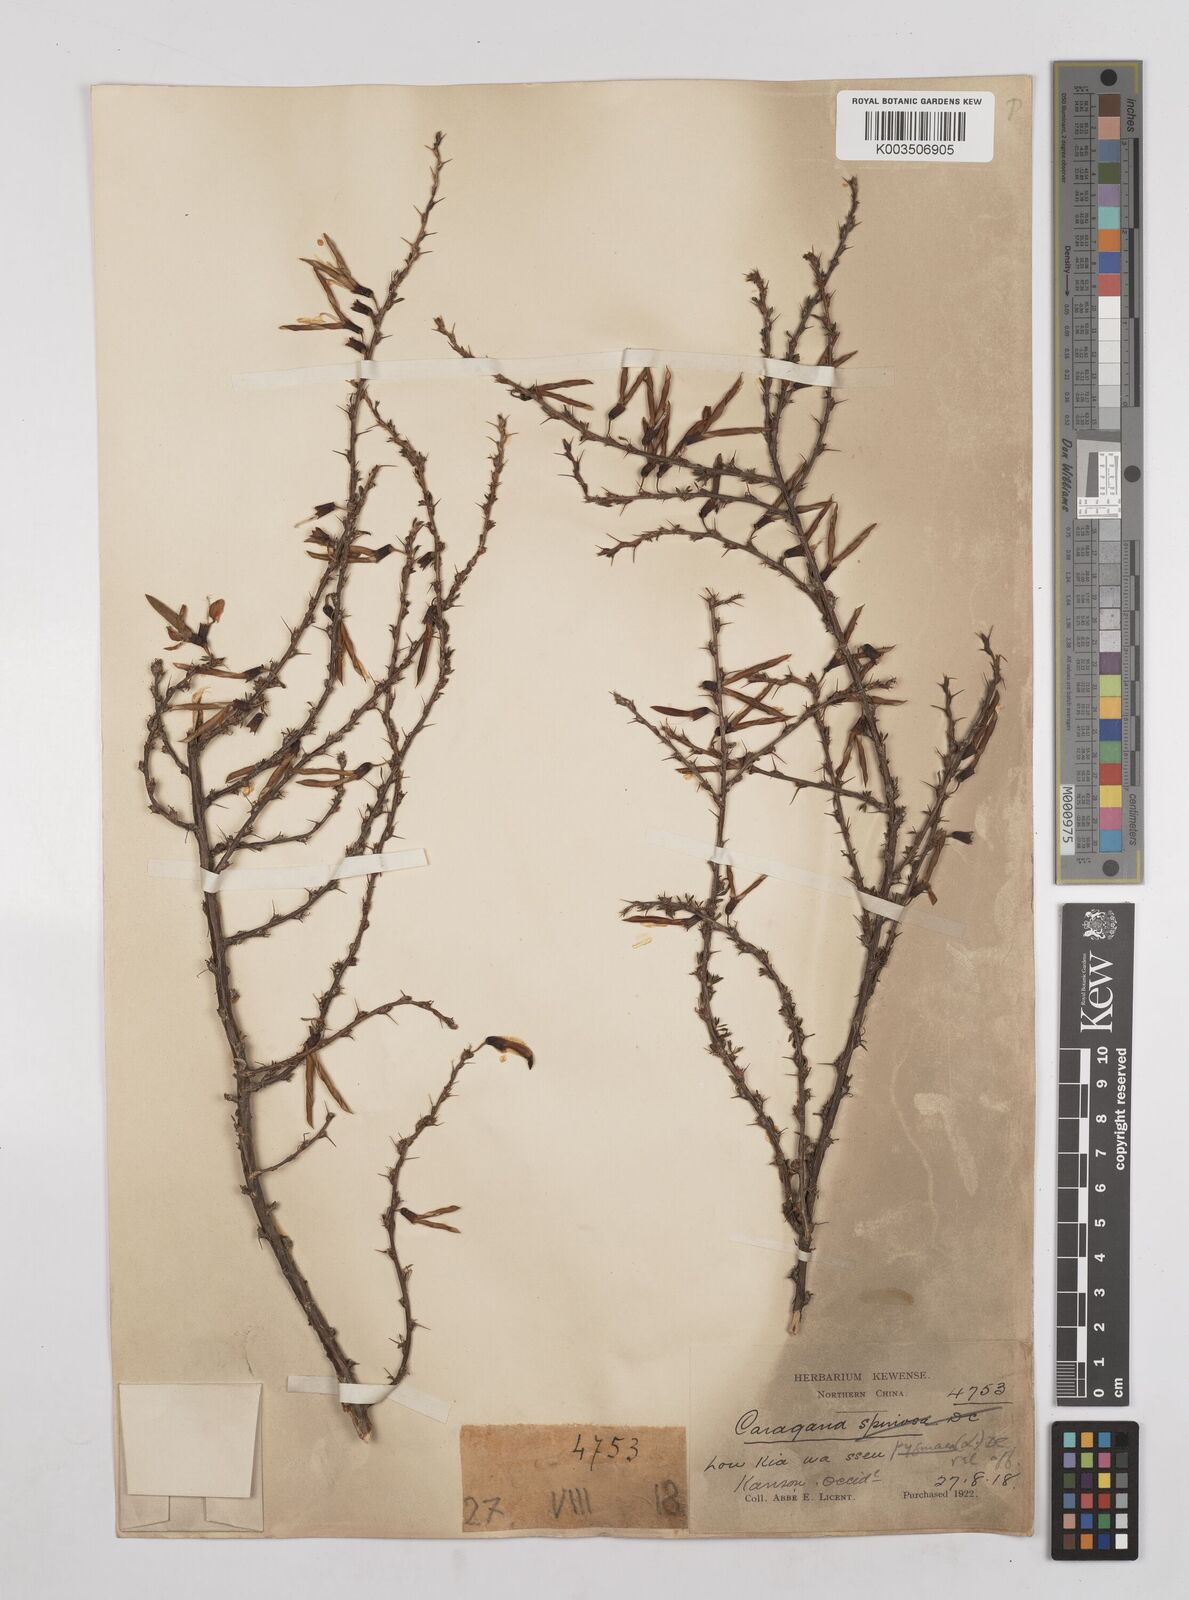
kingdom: Plantae
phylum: Tracheophyta
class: Magnoliopsida
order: Fabales
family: Fabaceae
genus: Caragana
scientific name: Caragana pygmaea
